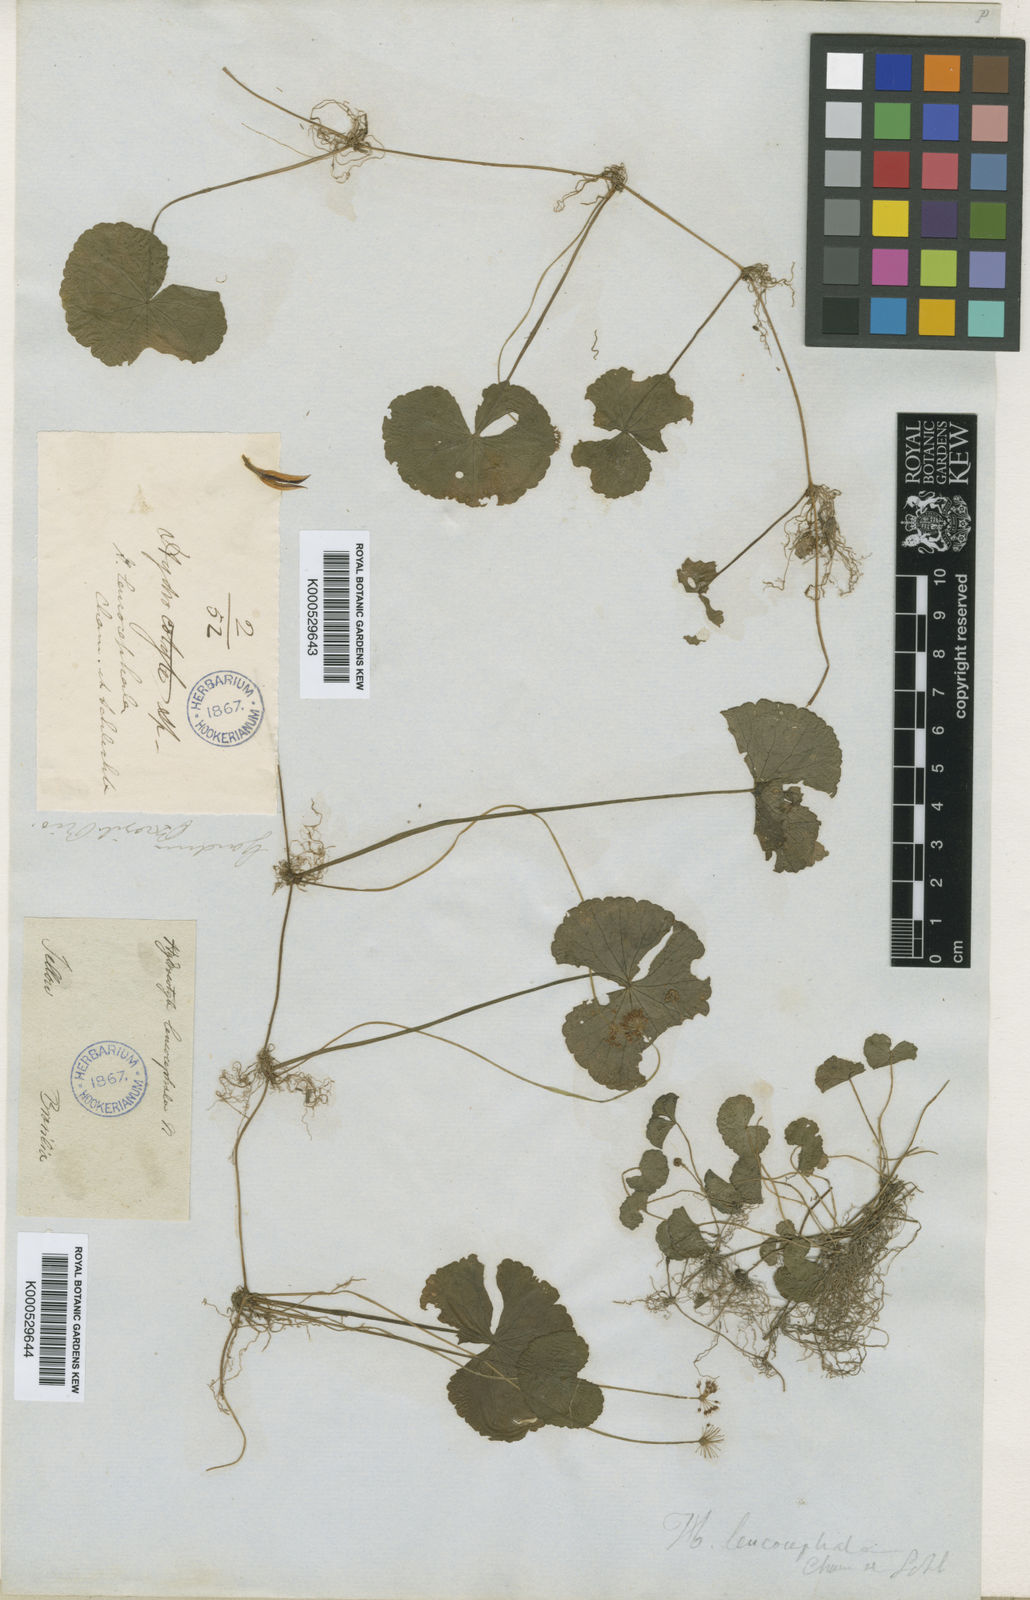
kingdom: Plantae
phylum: Tracheophyta
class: Magnoliopsida
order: Apiales
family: Araliaceae
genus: Hydrocotyle
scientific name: Hydrocotyle leucocephala
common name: Brazilian pennywort
